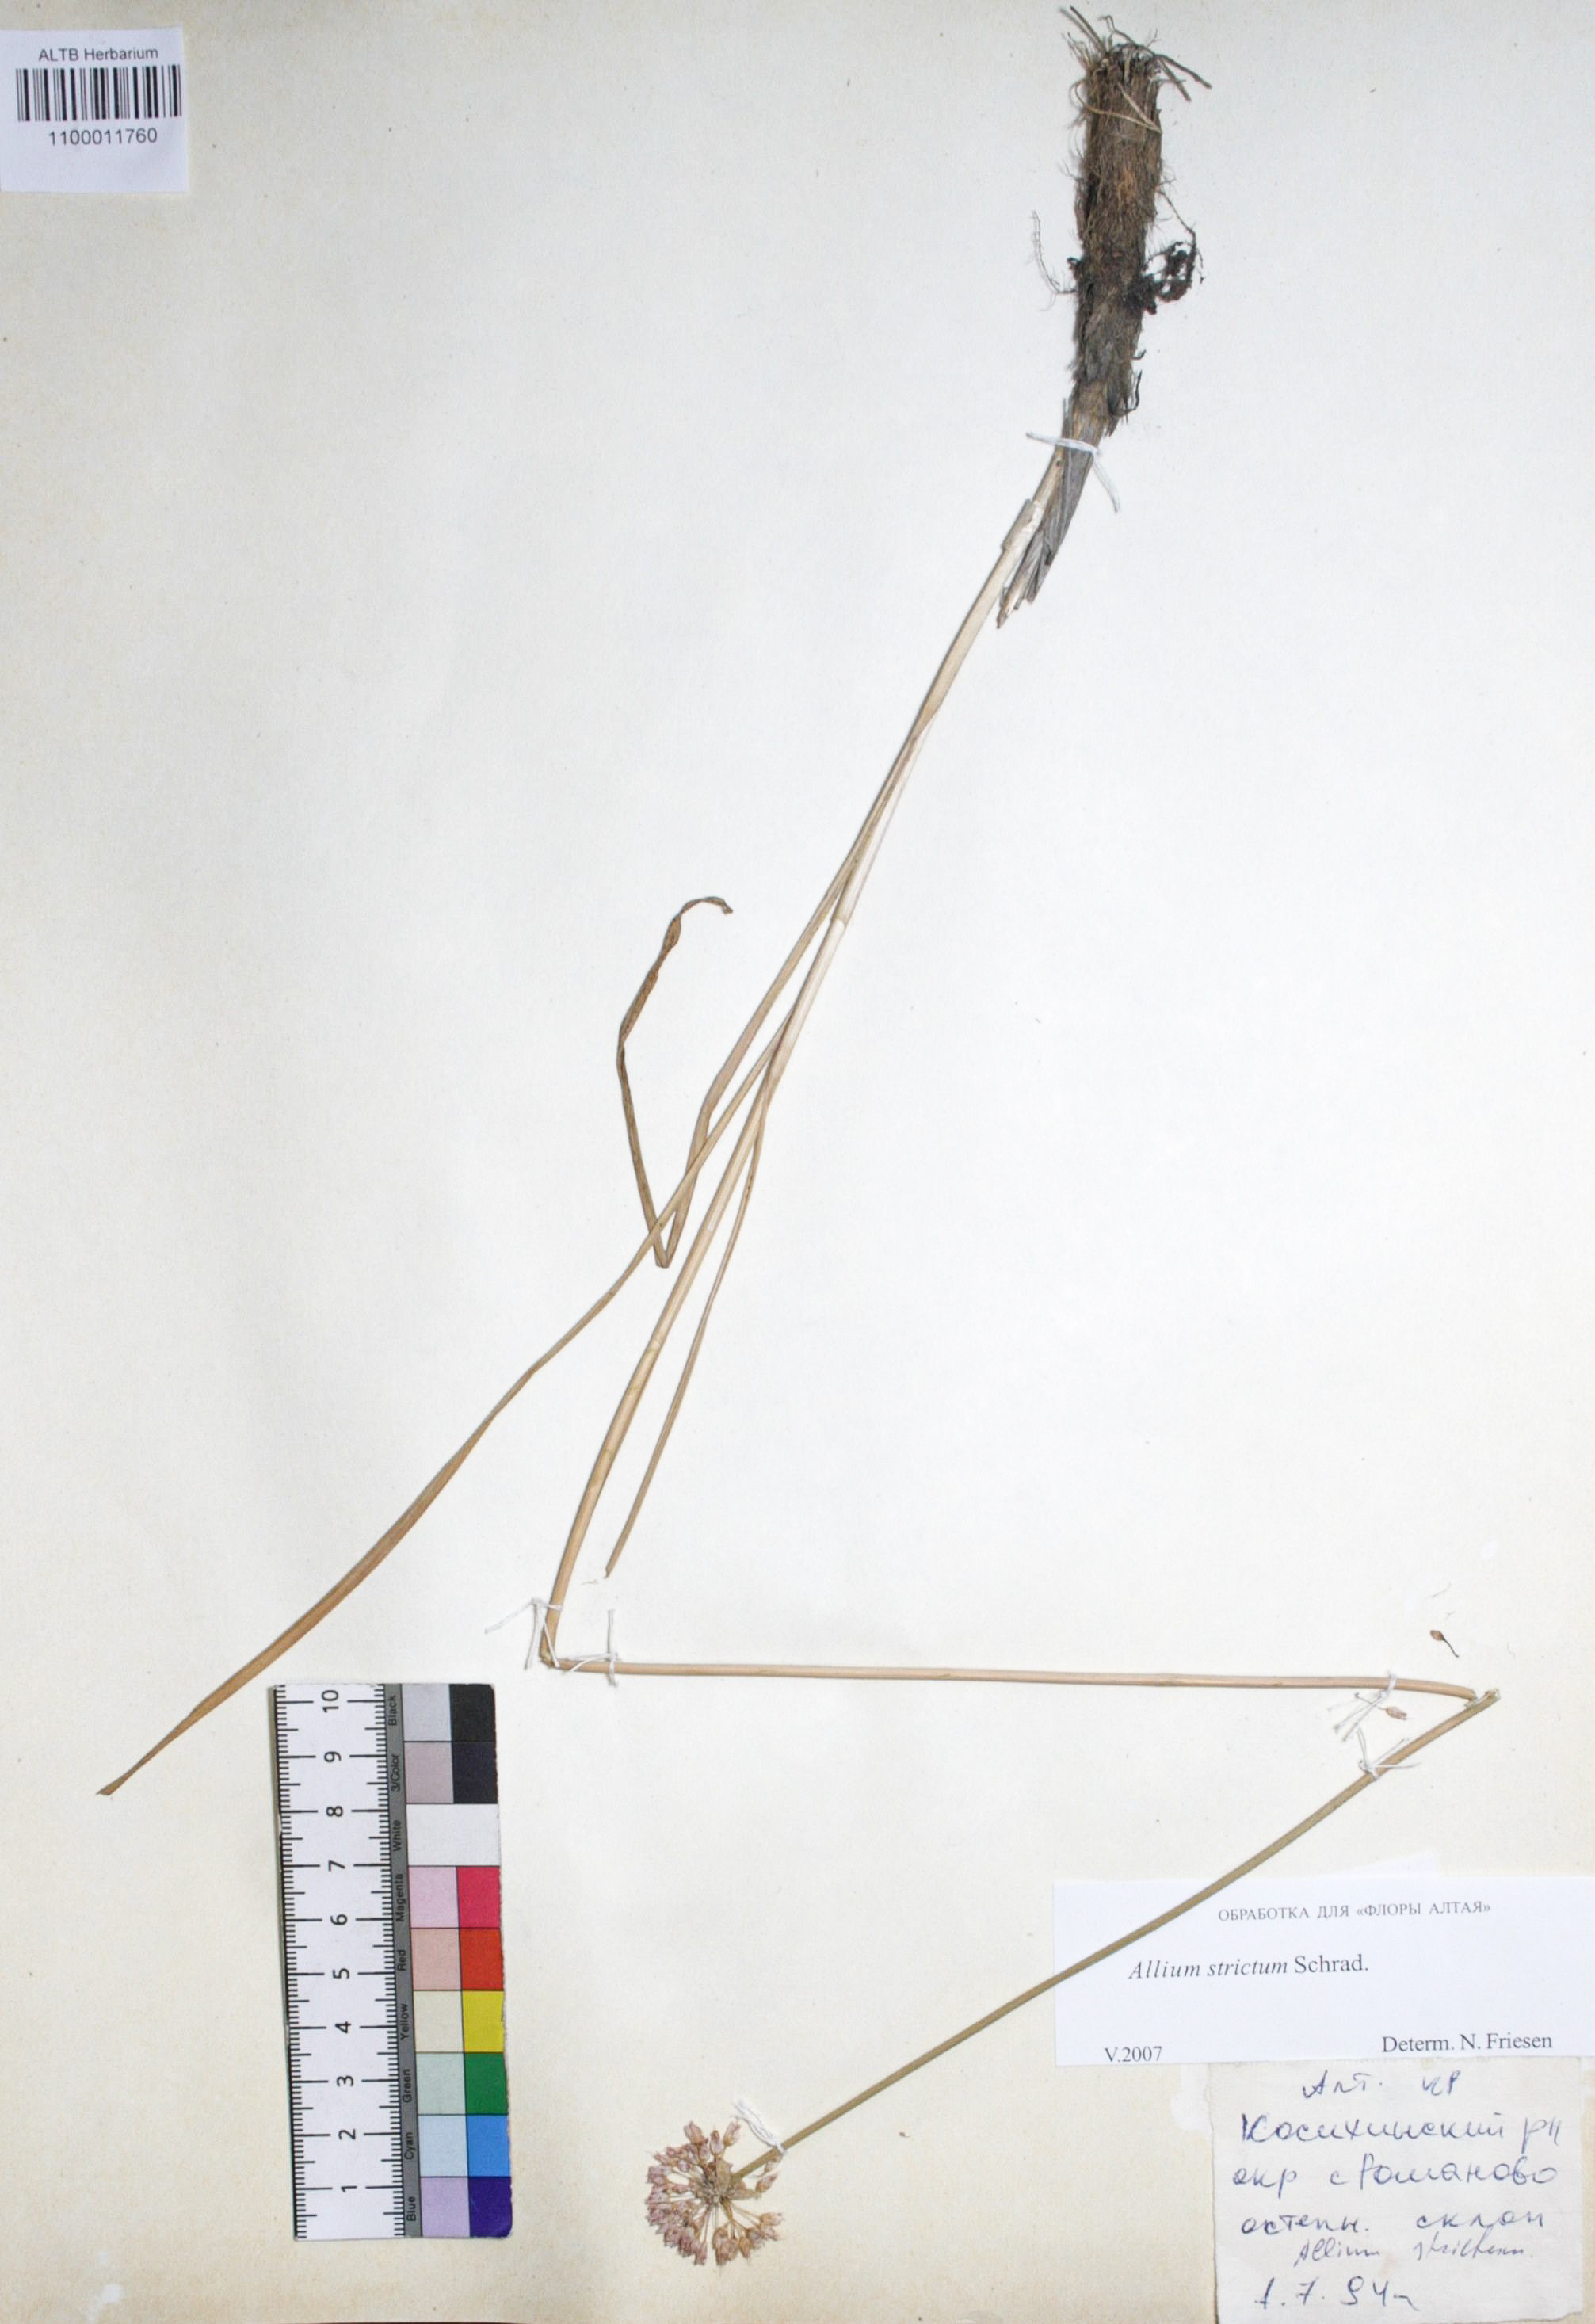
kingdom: Plantae
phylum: Tracheophyta
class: Liliopsida
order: Asparagales
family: Amaryllidaceae
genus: Allium
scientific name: Allium strictum
